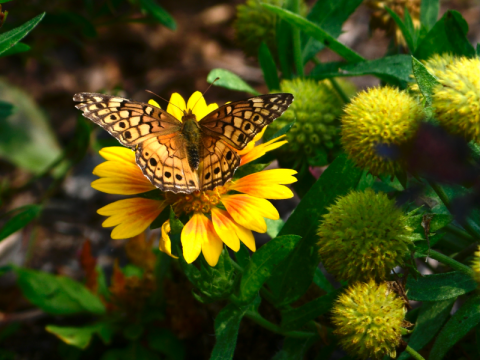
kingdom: Animalia
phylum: Arthropoda
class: Insecta
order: Lepidoptera
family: Nymphalidae
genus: Euptoieta
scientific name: Euptoieta claudia
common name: Variegated Fritillary
